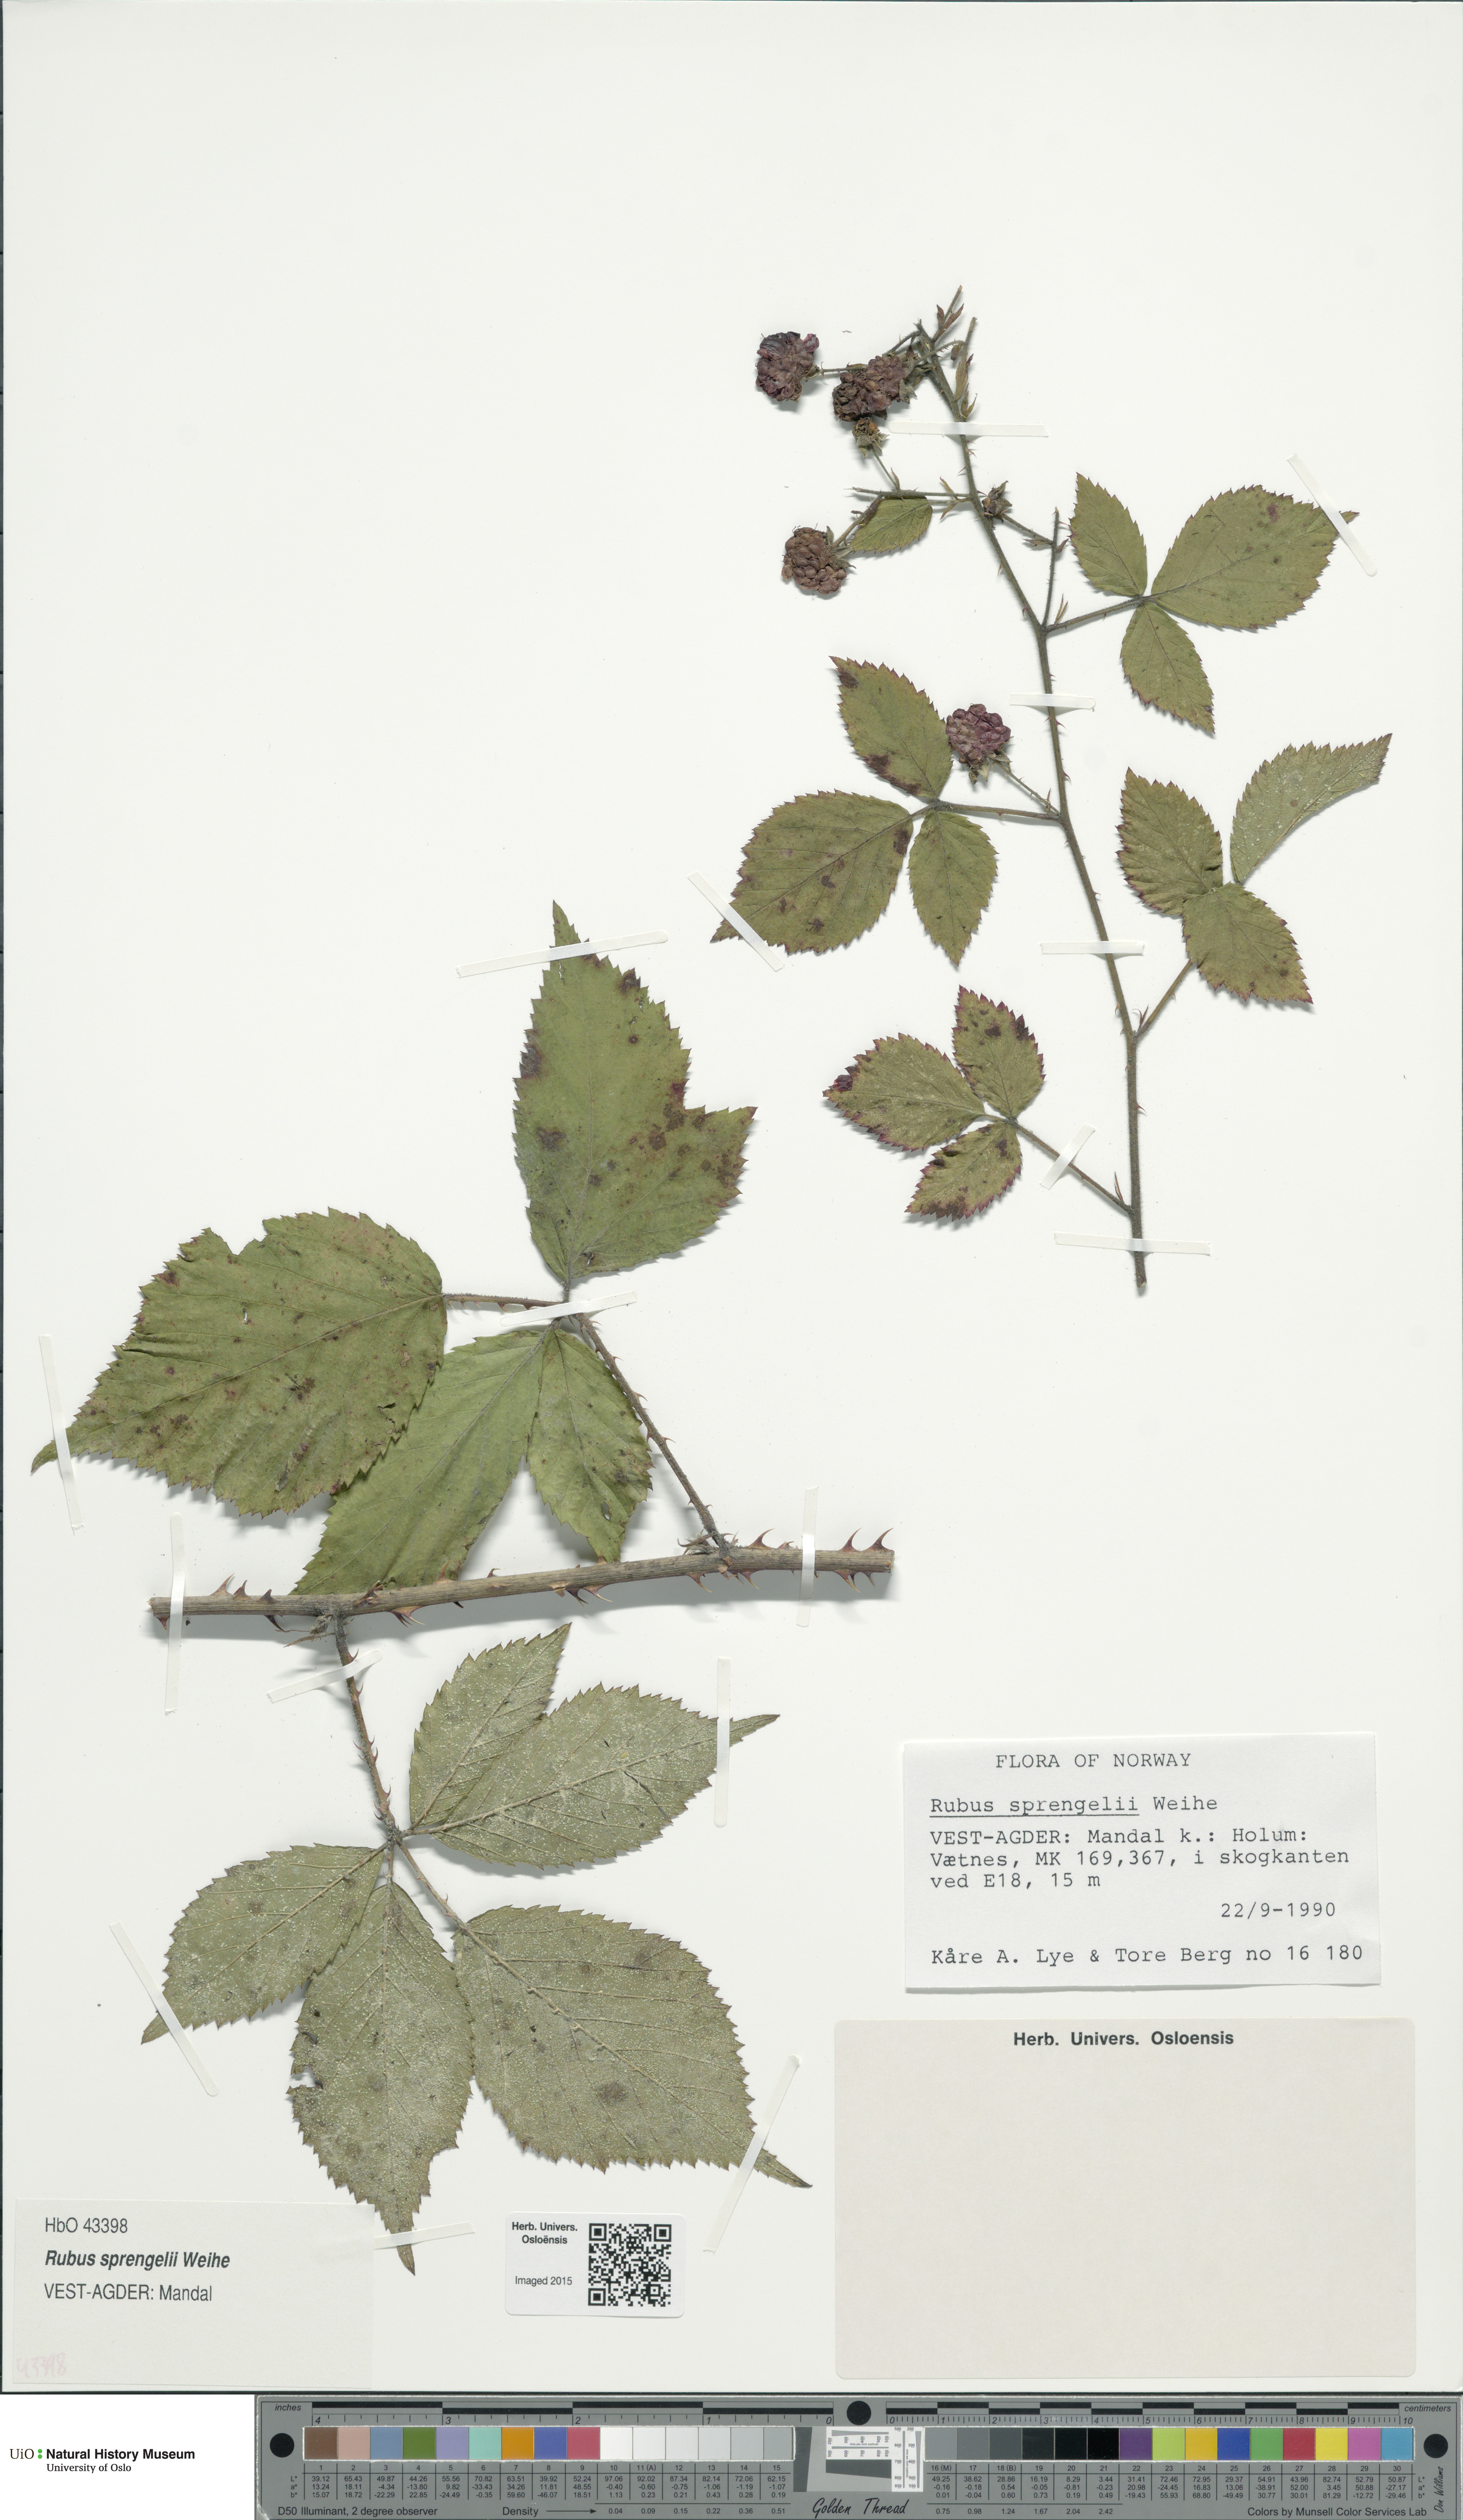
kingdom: Plantae
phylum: Tracheophyta
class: Magnoliopsida
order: Rosales
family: Rosaceae
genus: Rubus
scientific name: Rubus sprengelii
